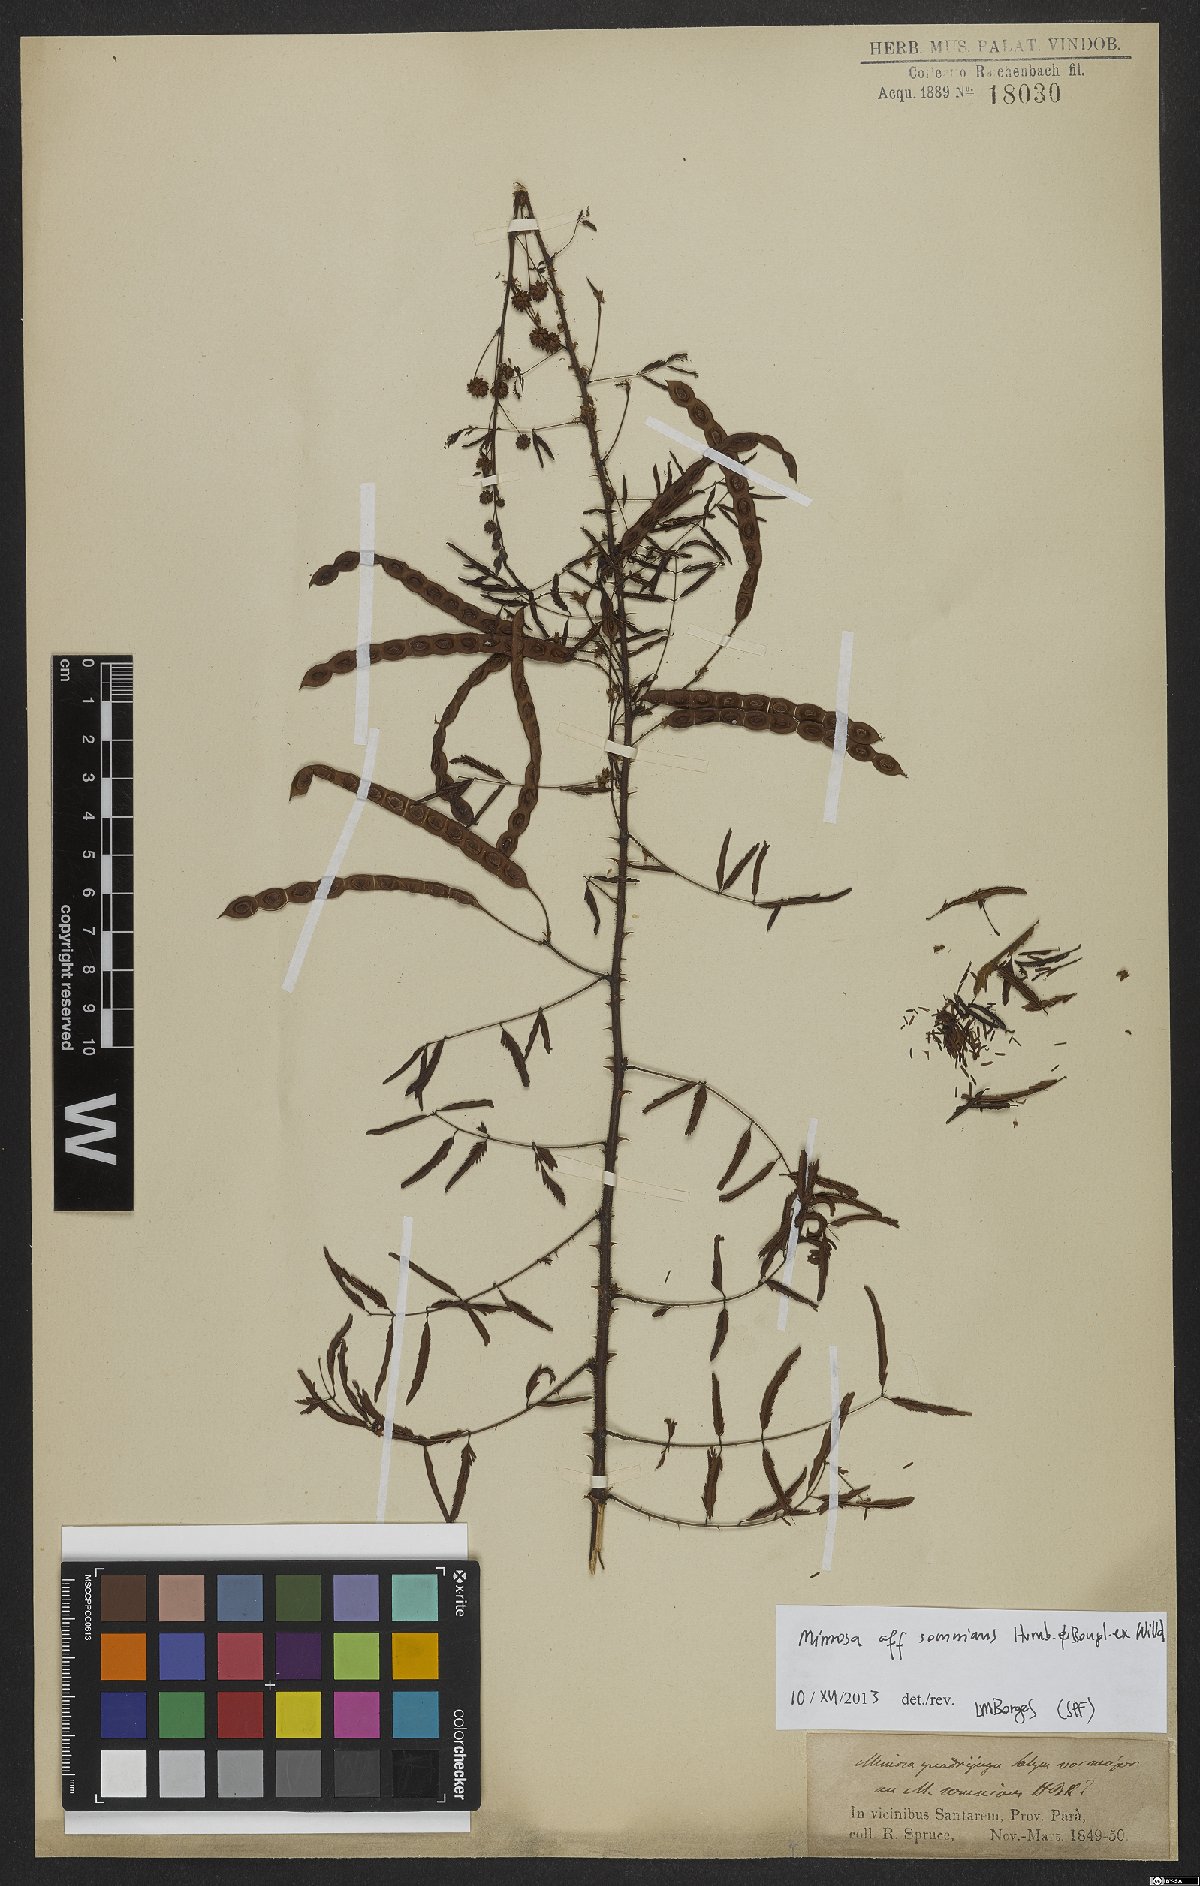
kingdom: Plantae
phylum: Tracheophyta
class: Magnoliopsida
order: Fabales
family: Fabaceae
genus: Mimosa
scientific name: Mimosa somnians
